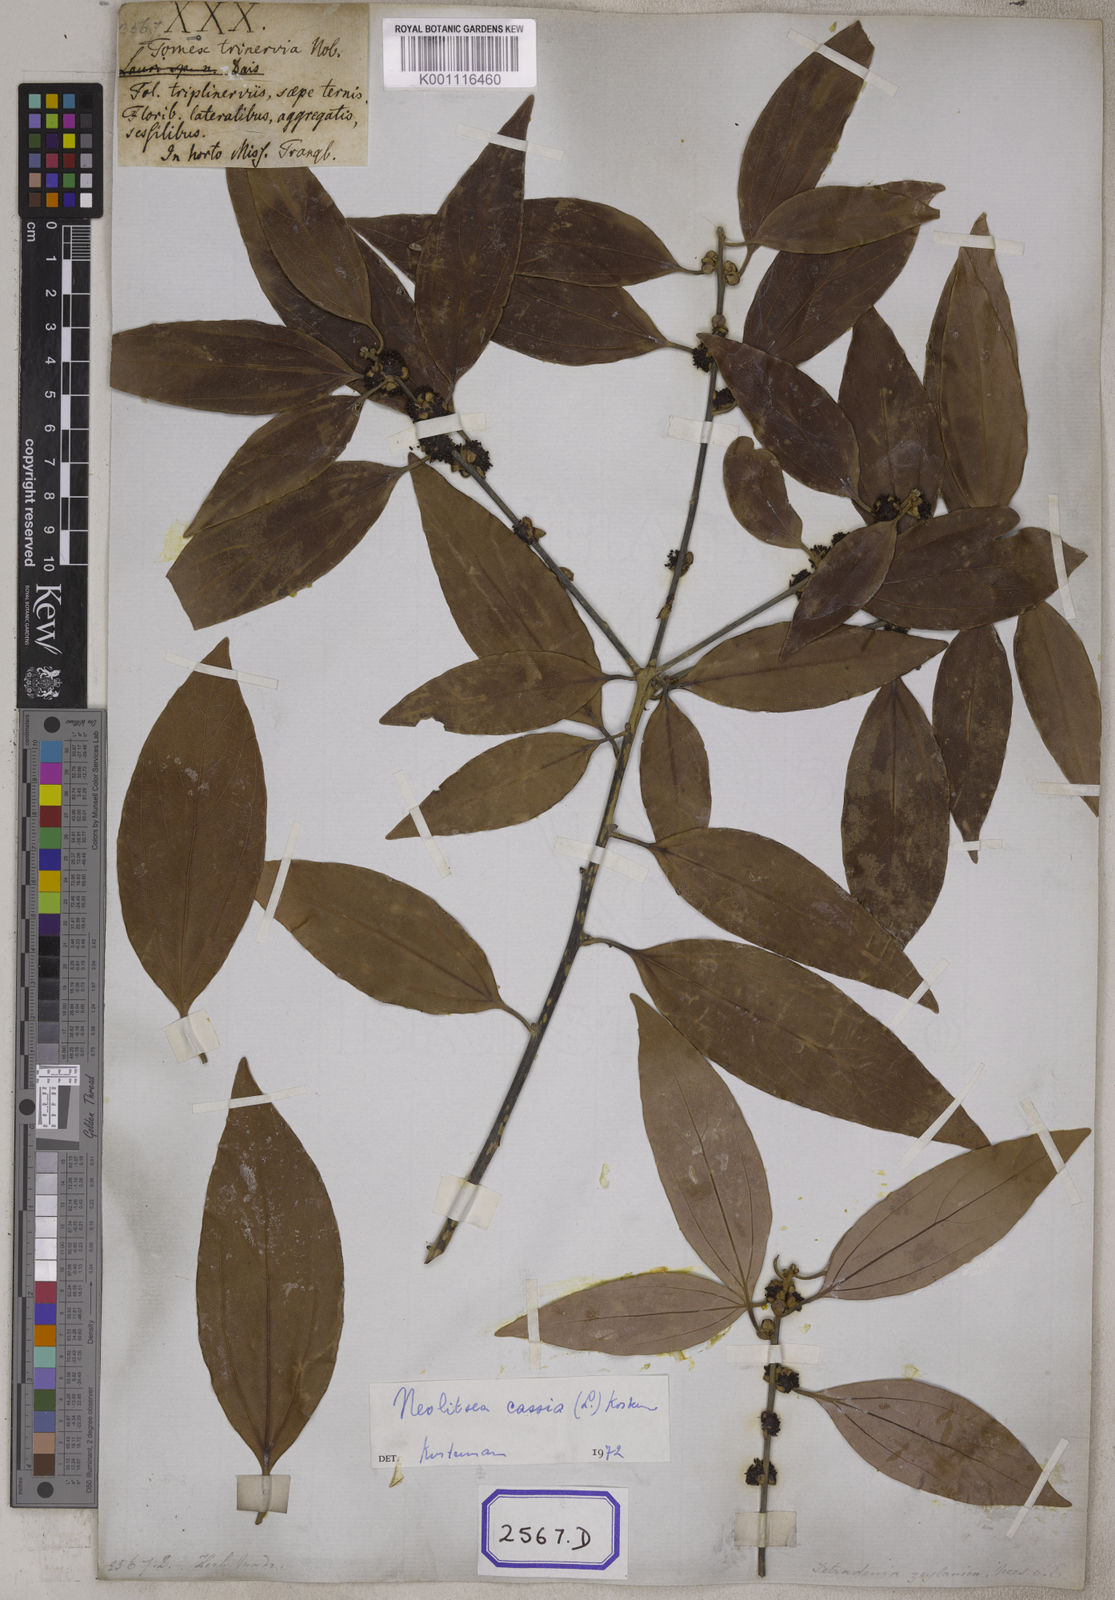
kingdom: Plantae
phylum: Tracheophyta
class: Magnoliopsida
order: Laurales
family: Lauraceae
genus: Lindera
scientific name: Lindera pulcherrima
